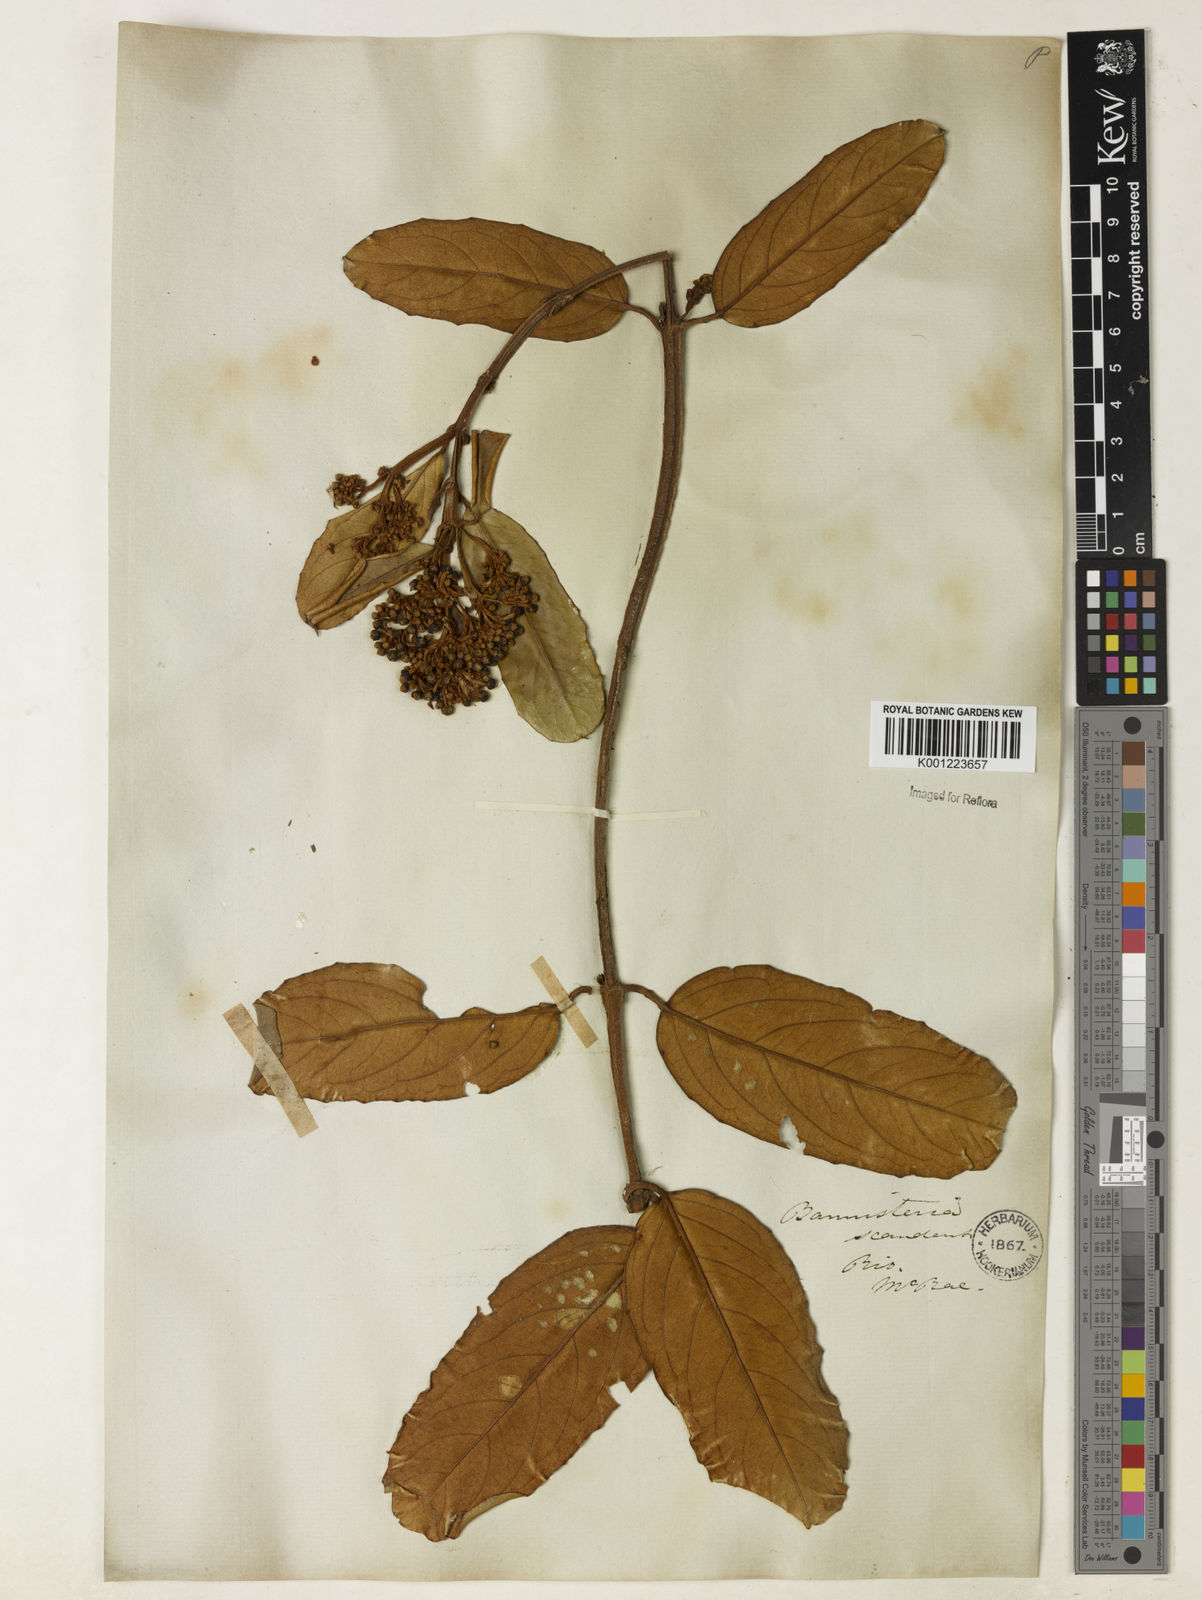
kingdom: Plantae
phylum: Tracheophyta
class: Magnoliopsida
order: Malpighiales
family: Malpighiaceae
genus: Heteropterys
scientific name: Heteropterys sericea
